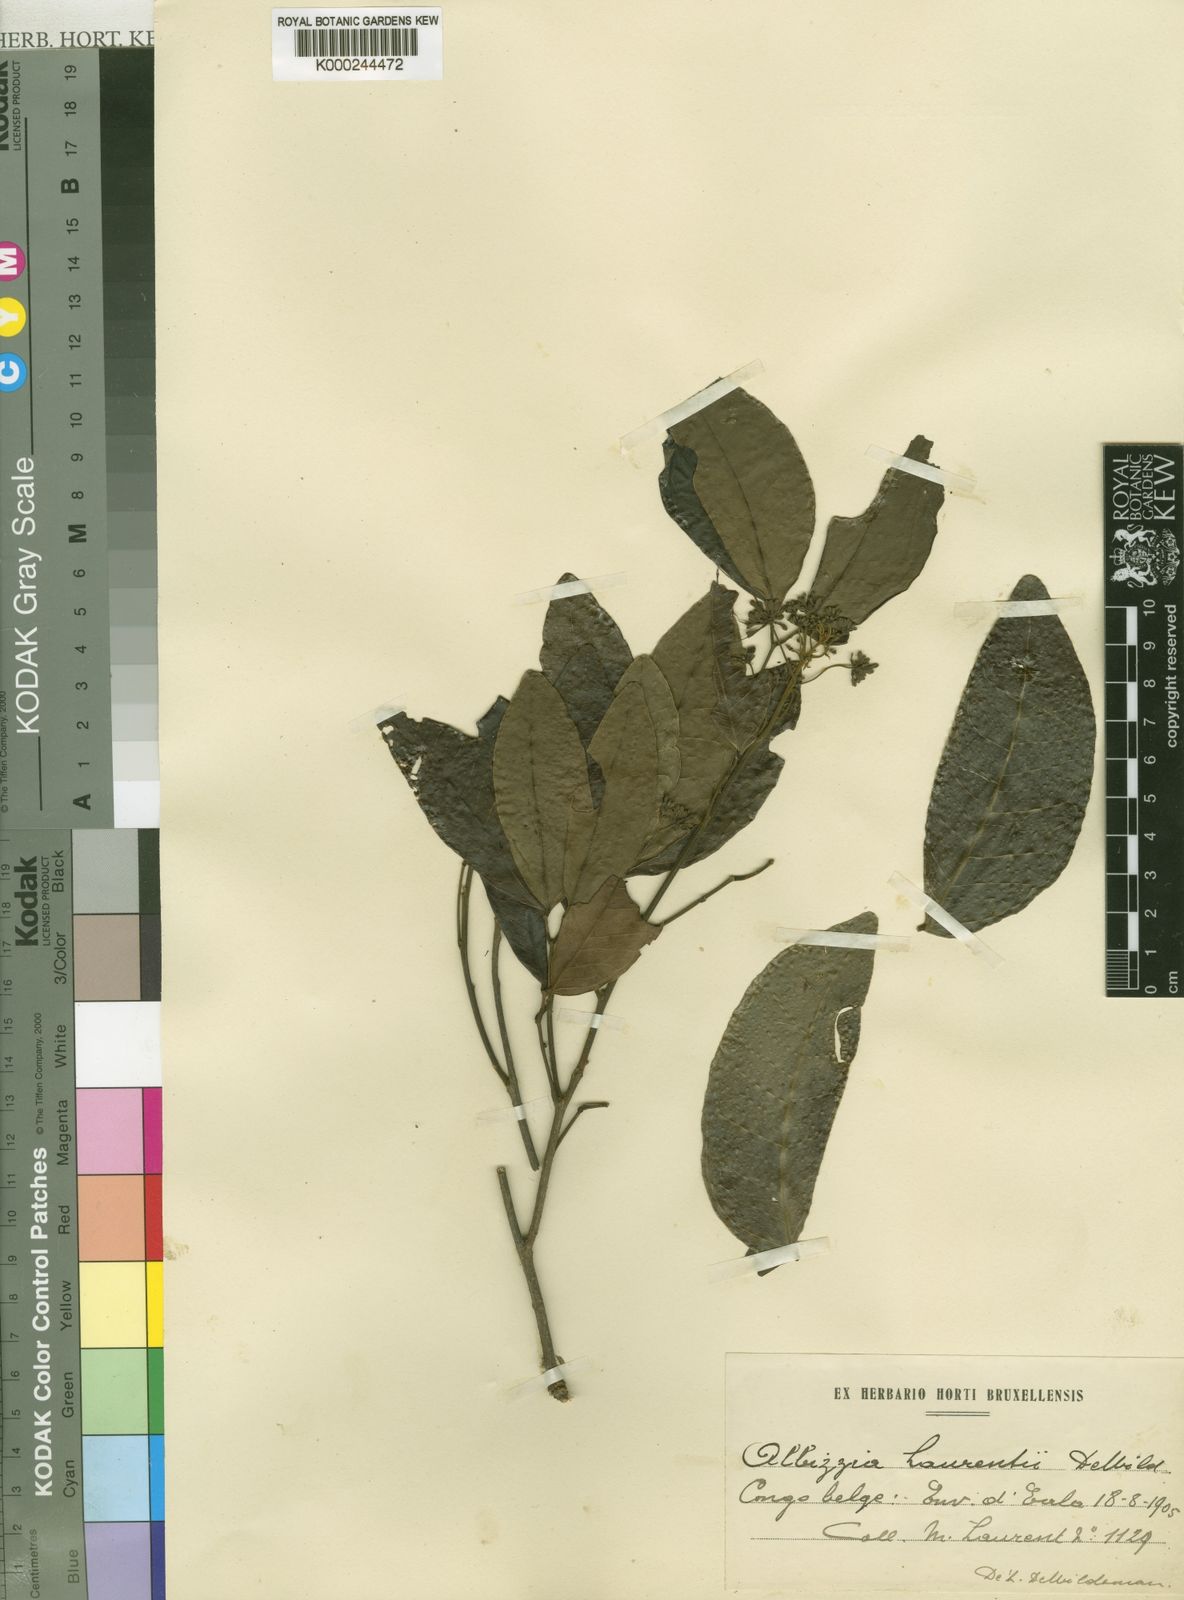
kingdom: Plantae
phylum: Tracheophyta
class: Magnoliopsida
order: Fabales
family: Fabaceae
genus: Albizia
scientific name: Albizia laurentii
